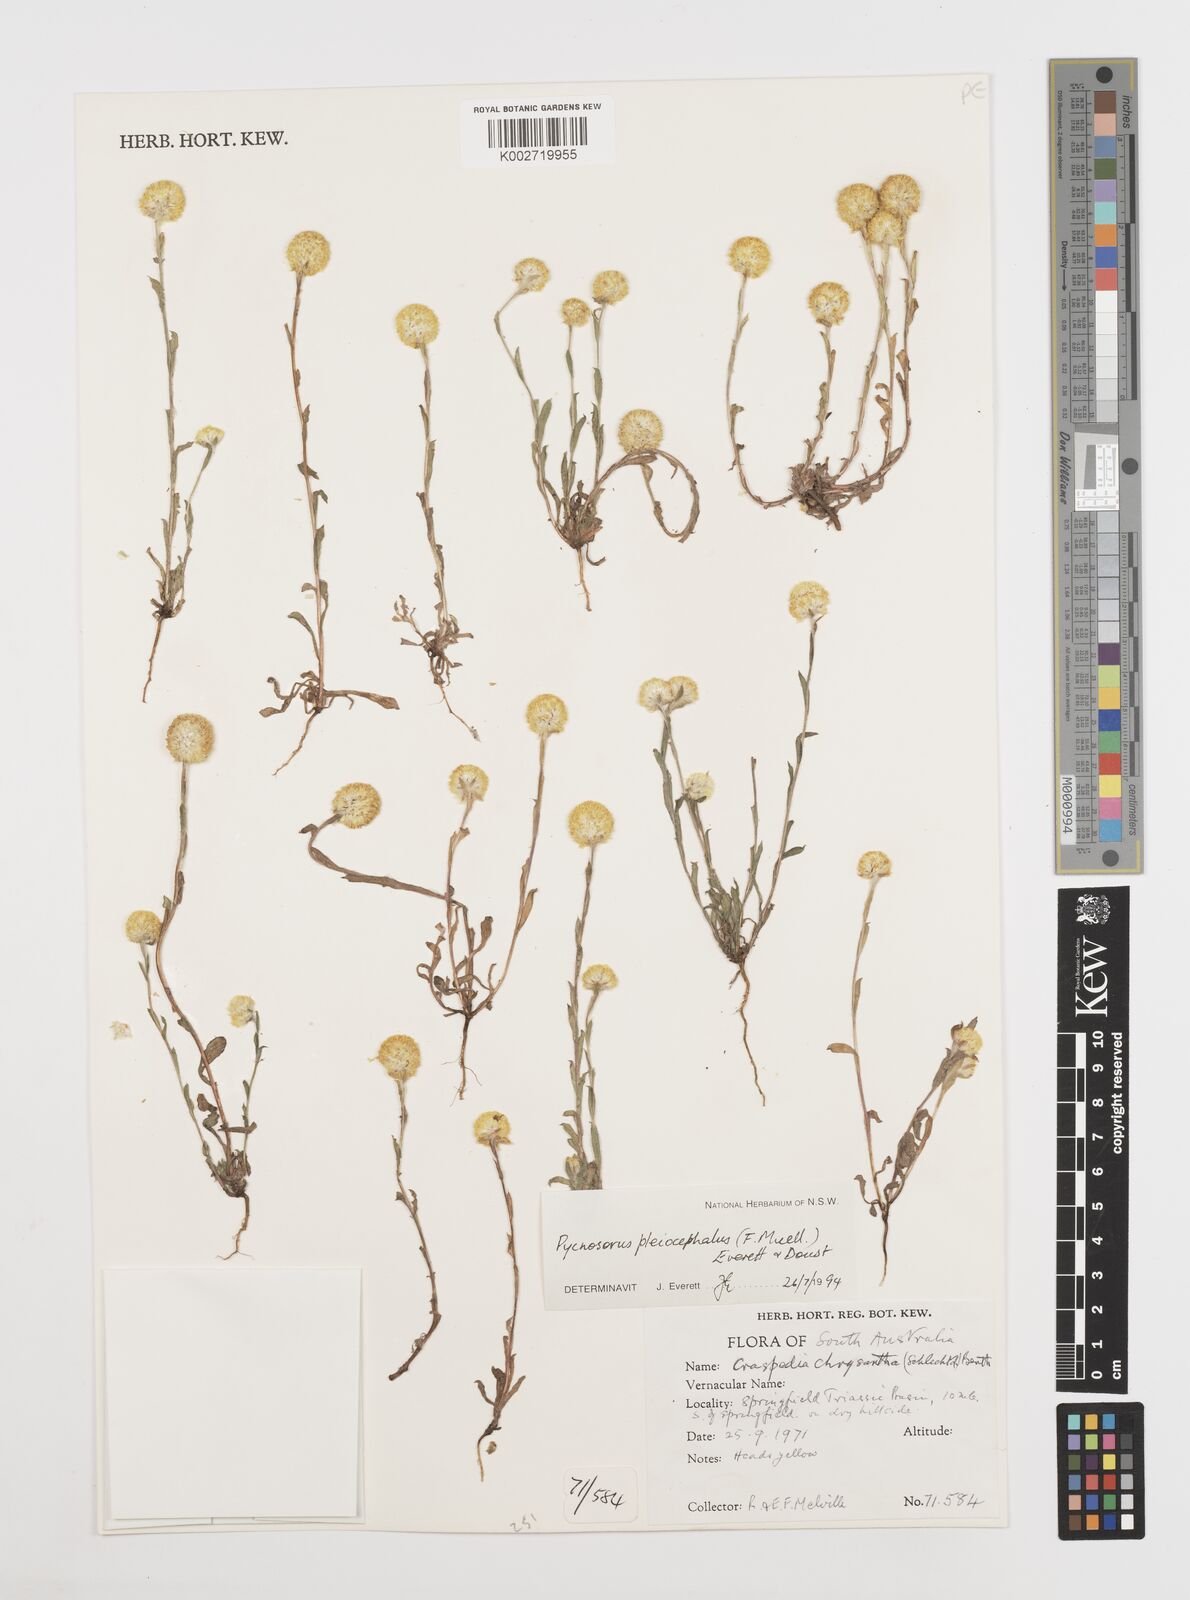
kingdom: Plantae
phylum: Tracheophyta
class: Magnoliopsida
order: Asterales
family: Asteraceae
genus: Pycnosorus
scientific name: Pycnosorus pleiocephalus
